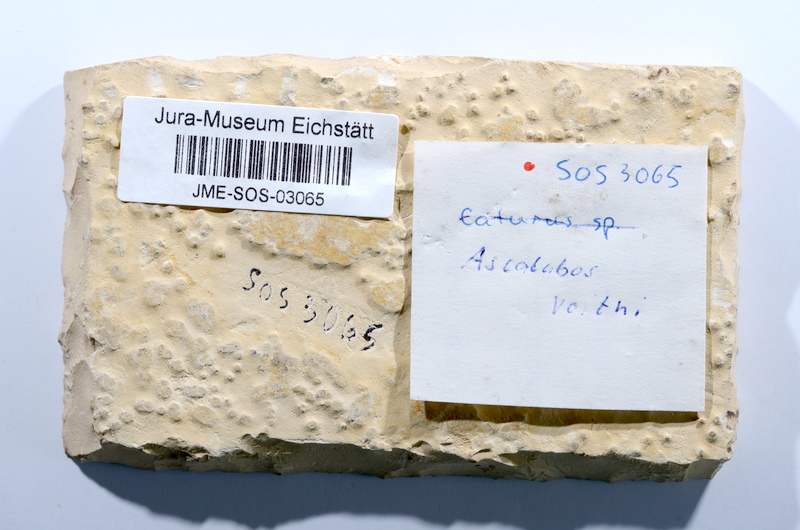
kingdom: Animalia
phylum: Chordata
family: Ascalaboidae
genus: Ascalabos
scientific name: Ascalabos voithii
